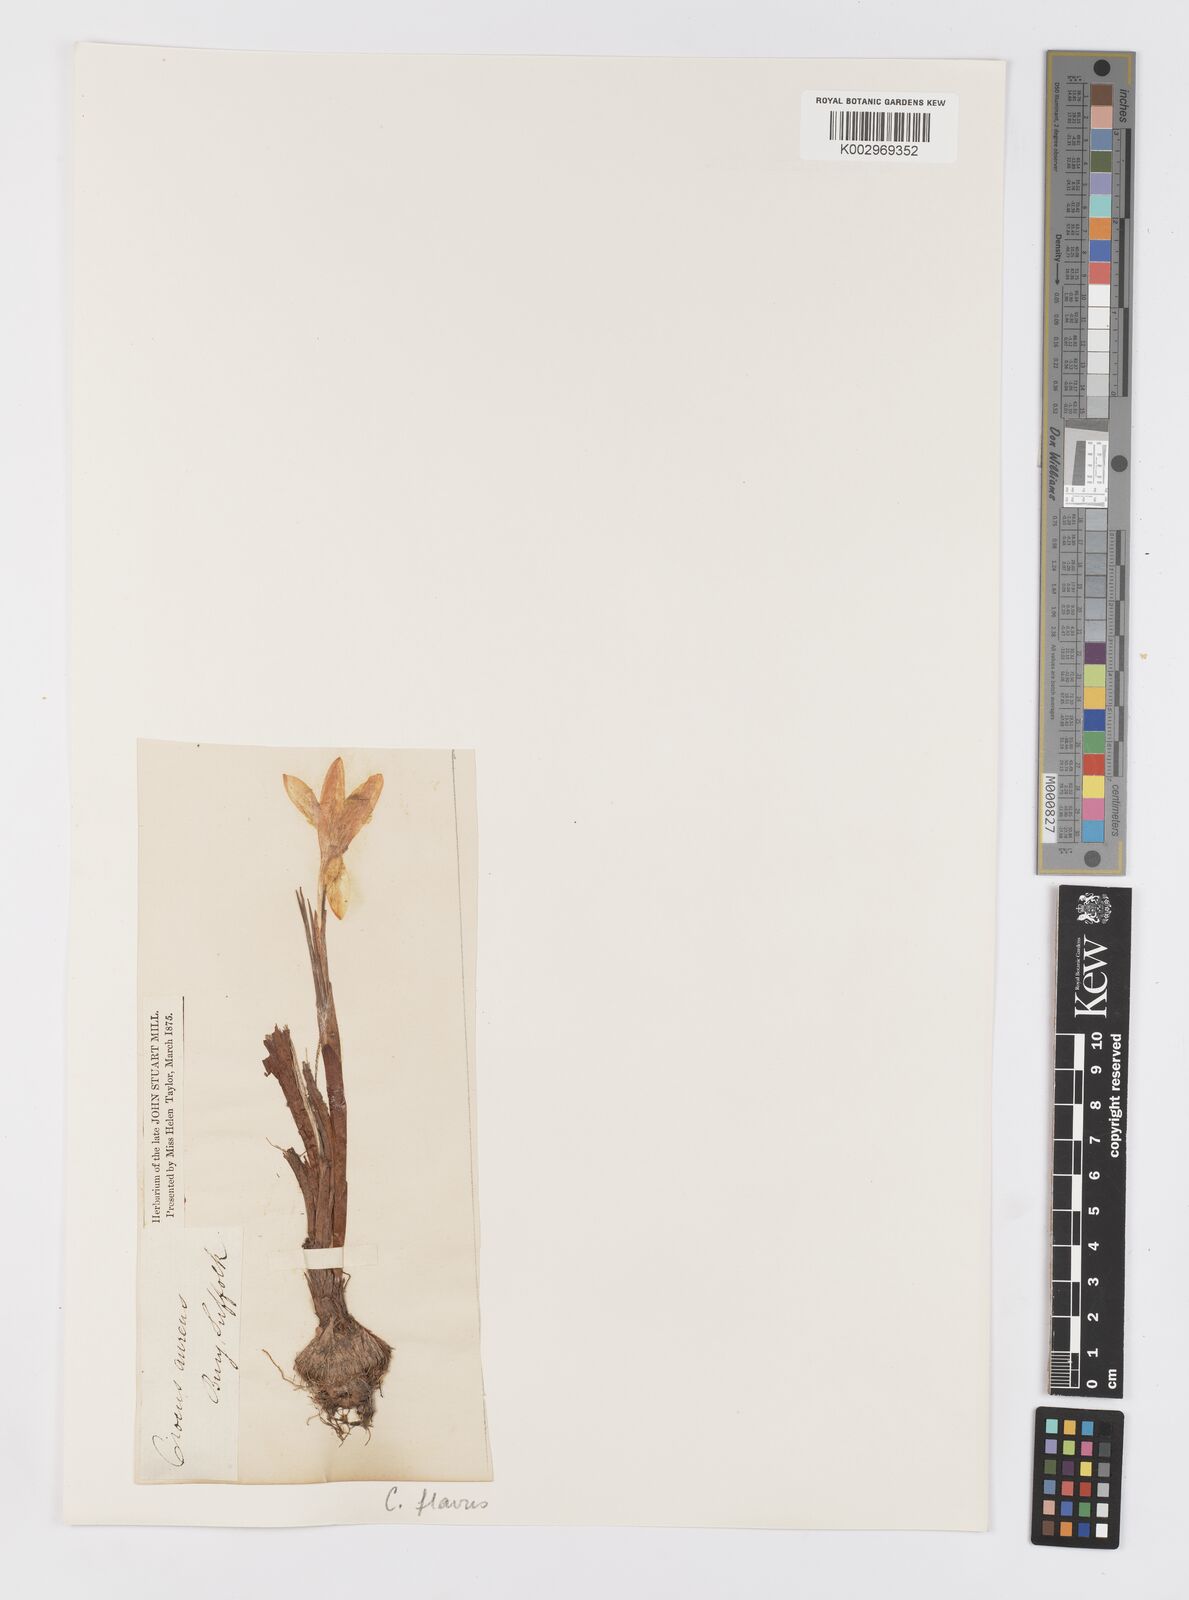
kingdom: Plantae
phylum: Tracheophyta
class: Liliopsida
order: Asparagales
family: Iridaceae
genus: Crocus
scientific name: Crocus flavus
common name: Yellow crocus
